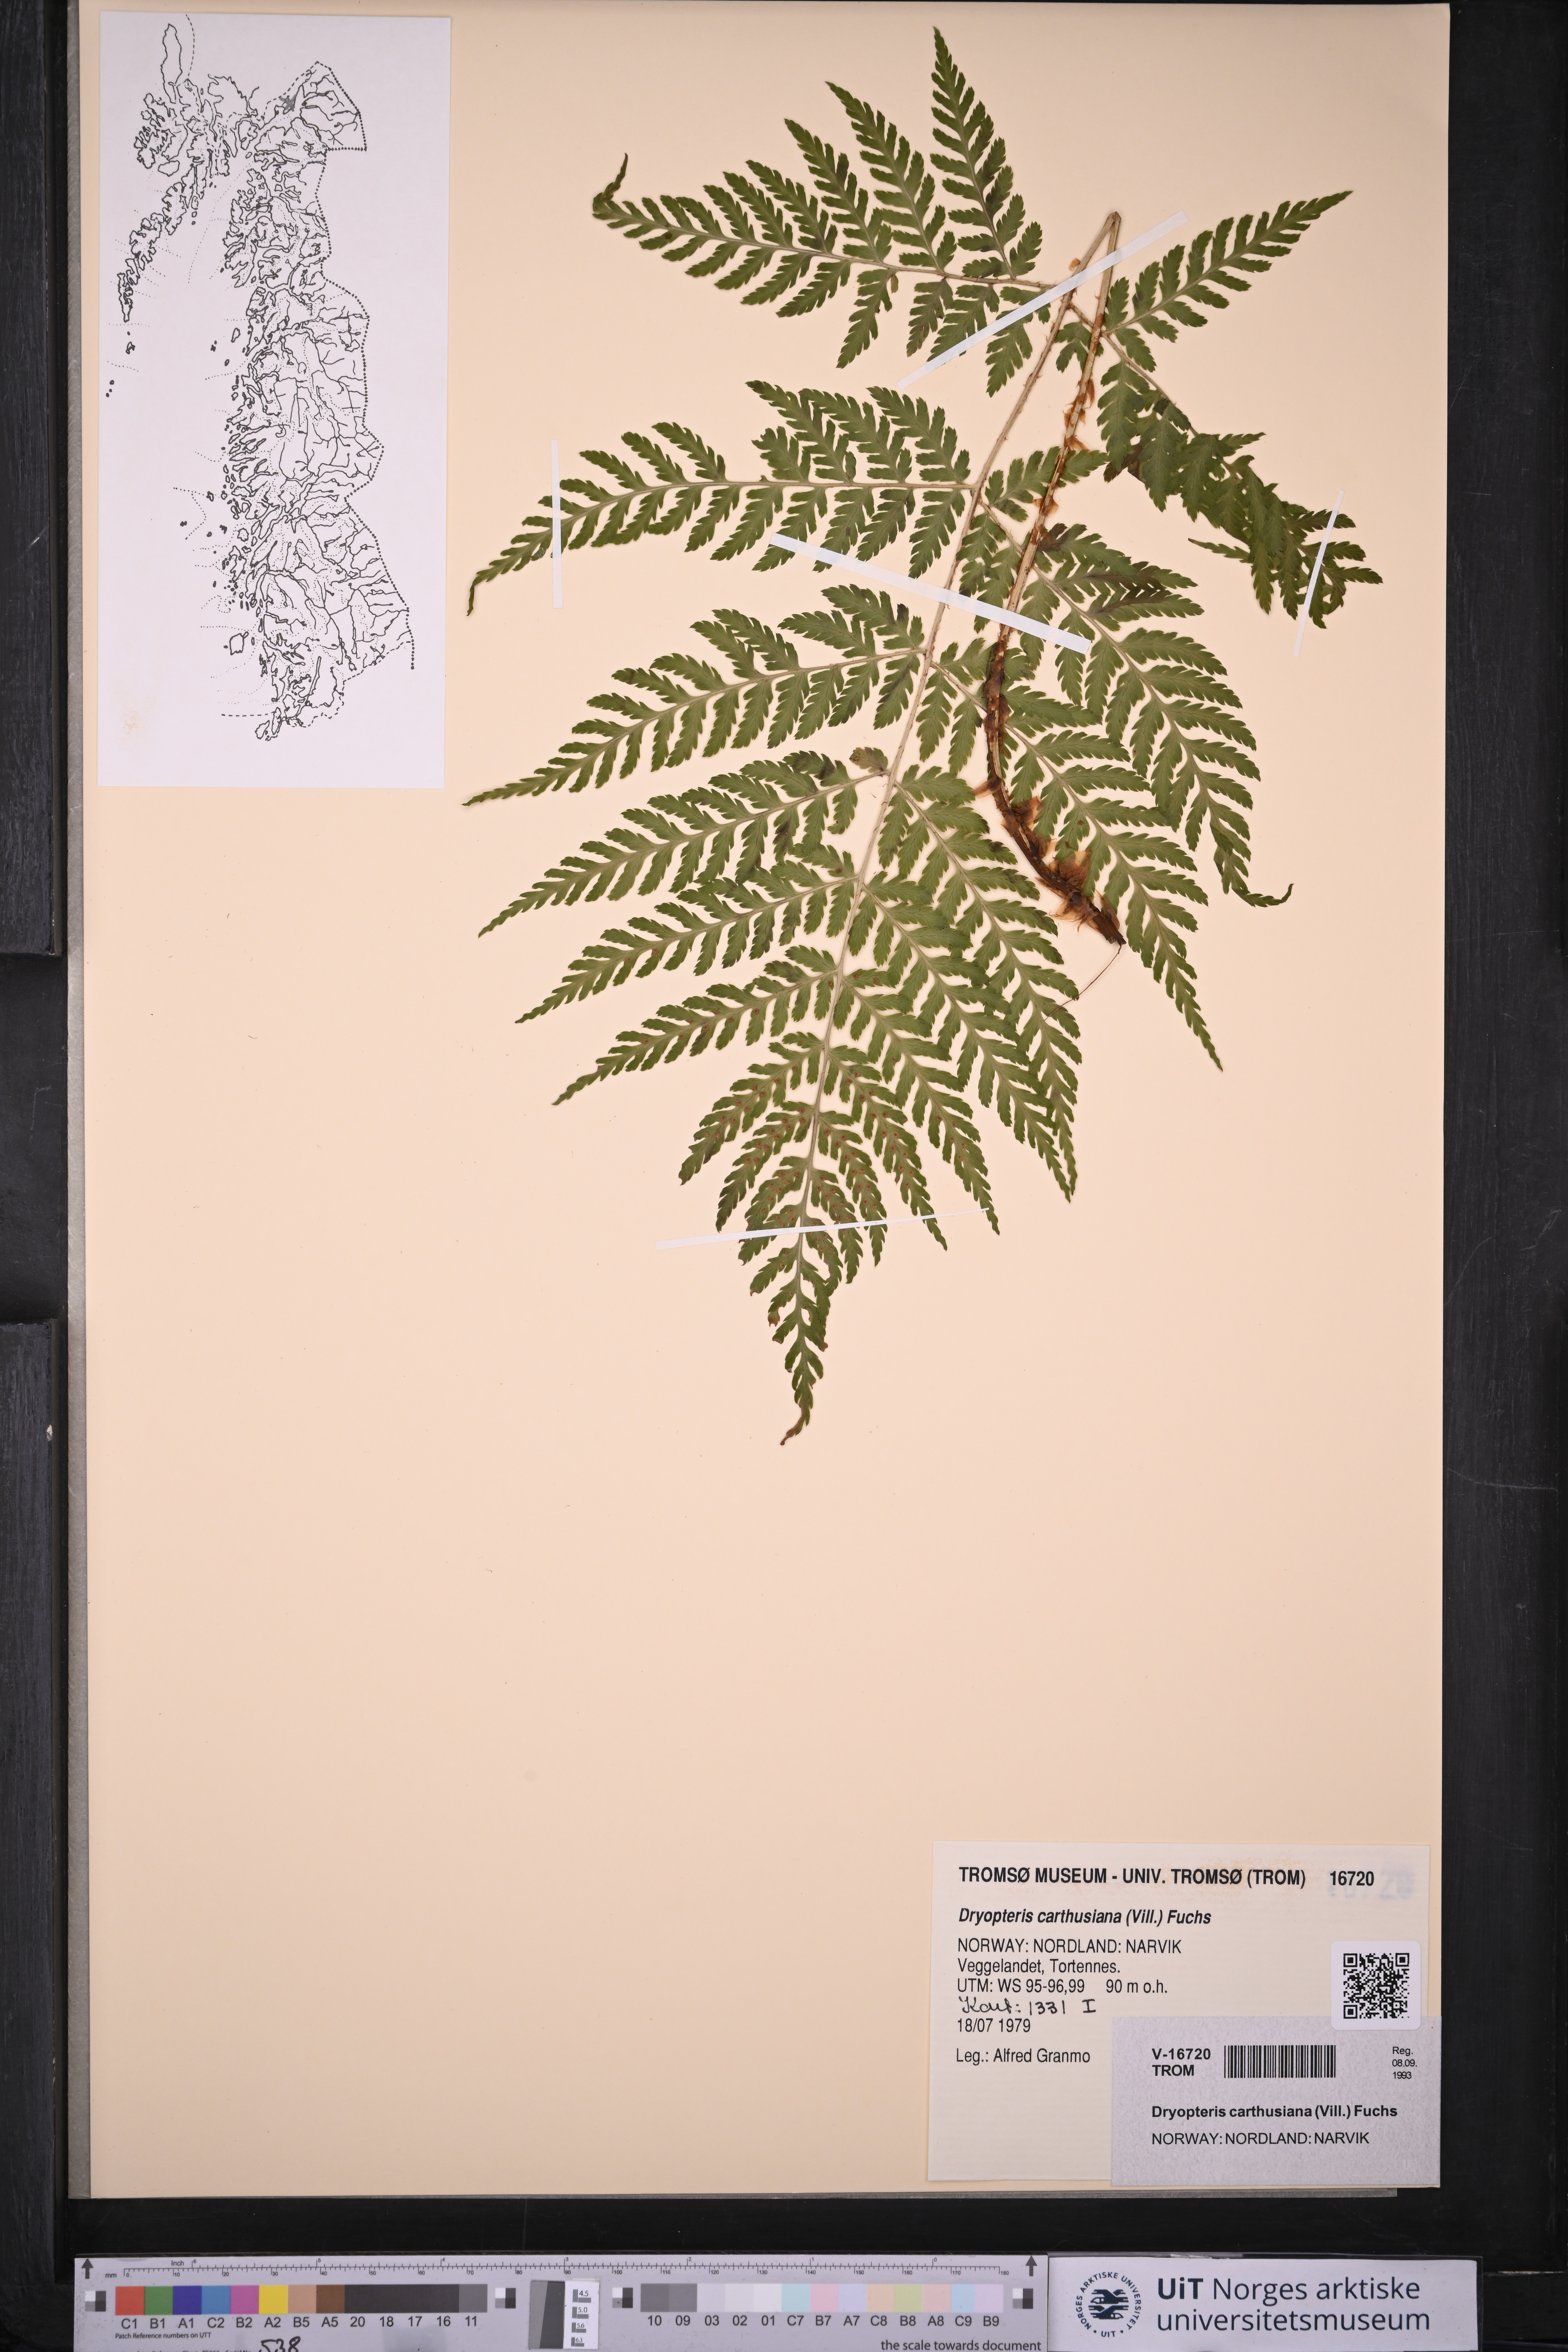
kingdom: Plantae
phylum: Tracheophyta
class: Polypodiopsida
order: Polypodiales
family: Dryopteridaceae
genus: Dryopteris
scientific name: Dryopteris carthusiana
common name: Narrow buckler-fern
